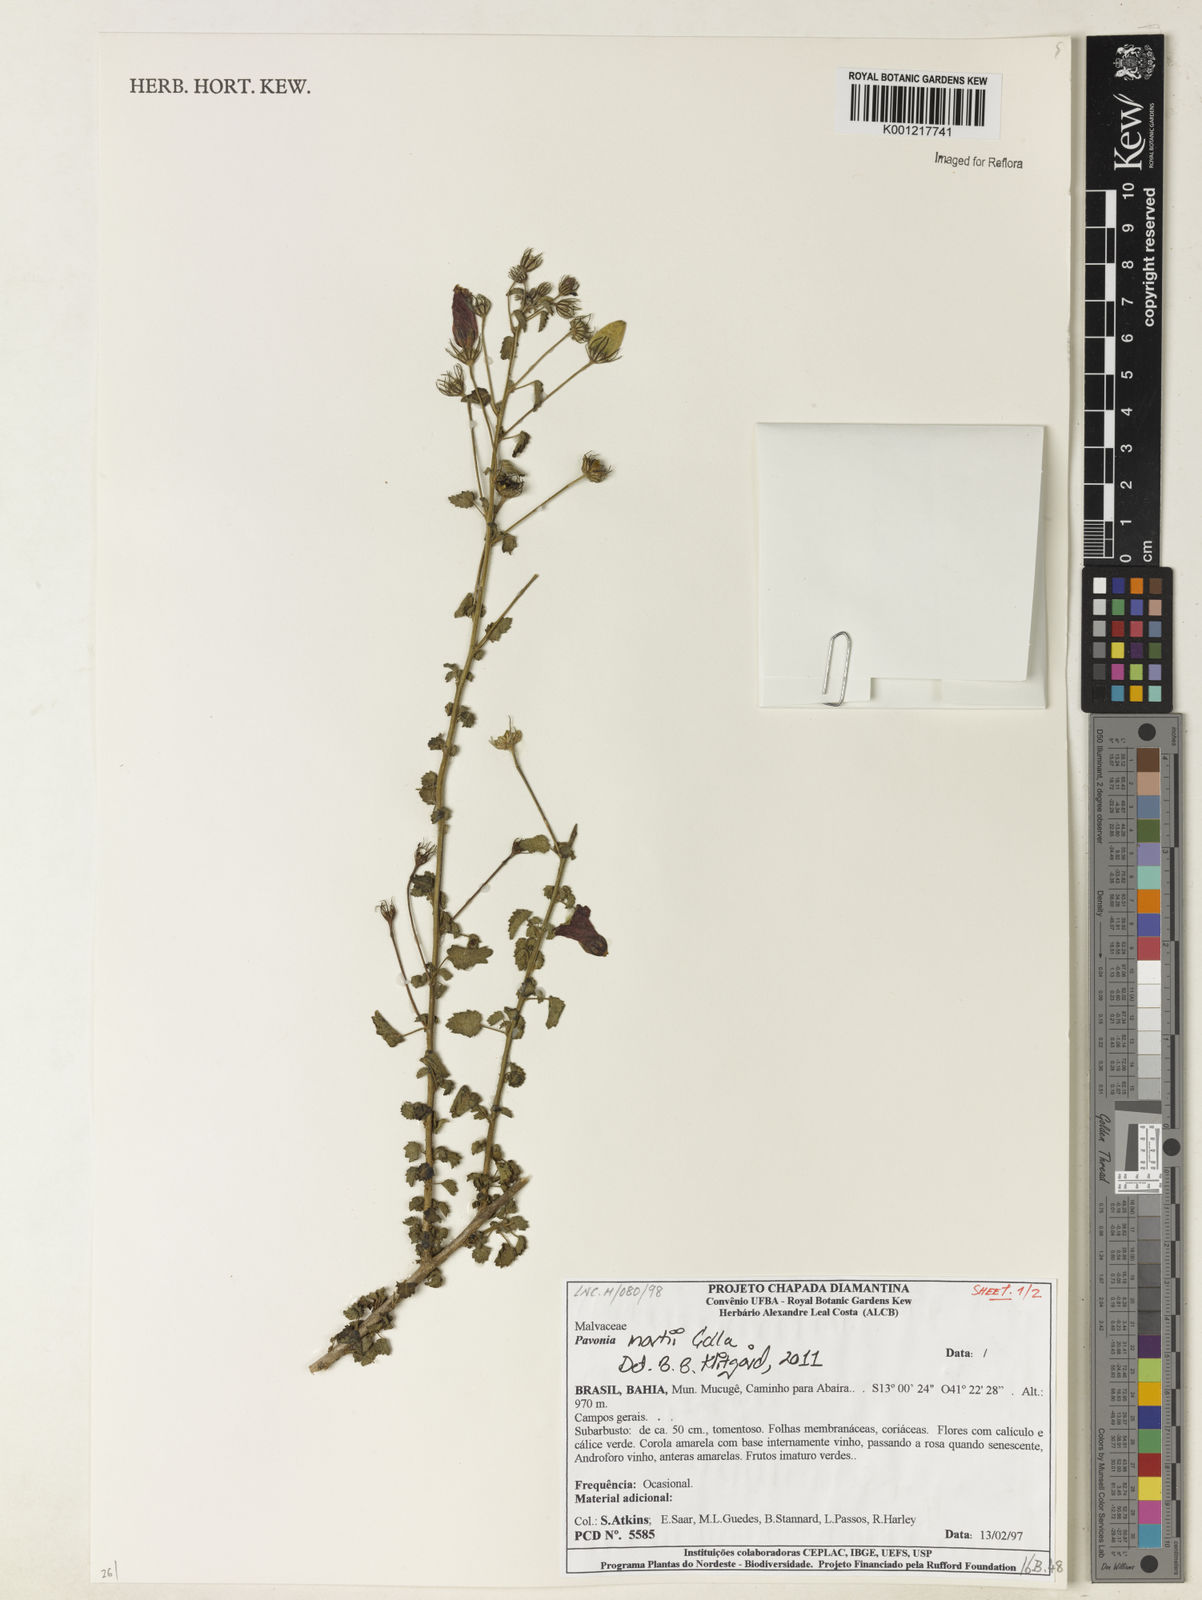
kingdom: Plantae
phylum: Tracheophyta
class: Magnoliopsida
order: Malvales
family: Malvaceae
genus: Pavonia
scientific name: Pavonia martii
